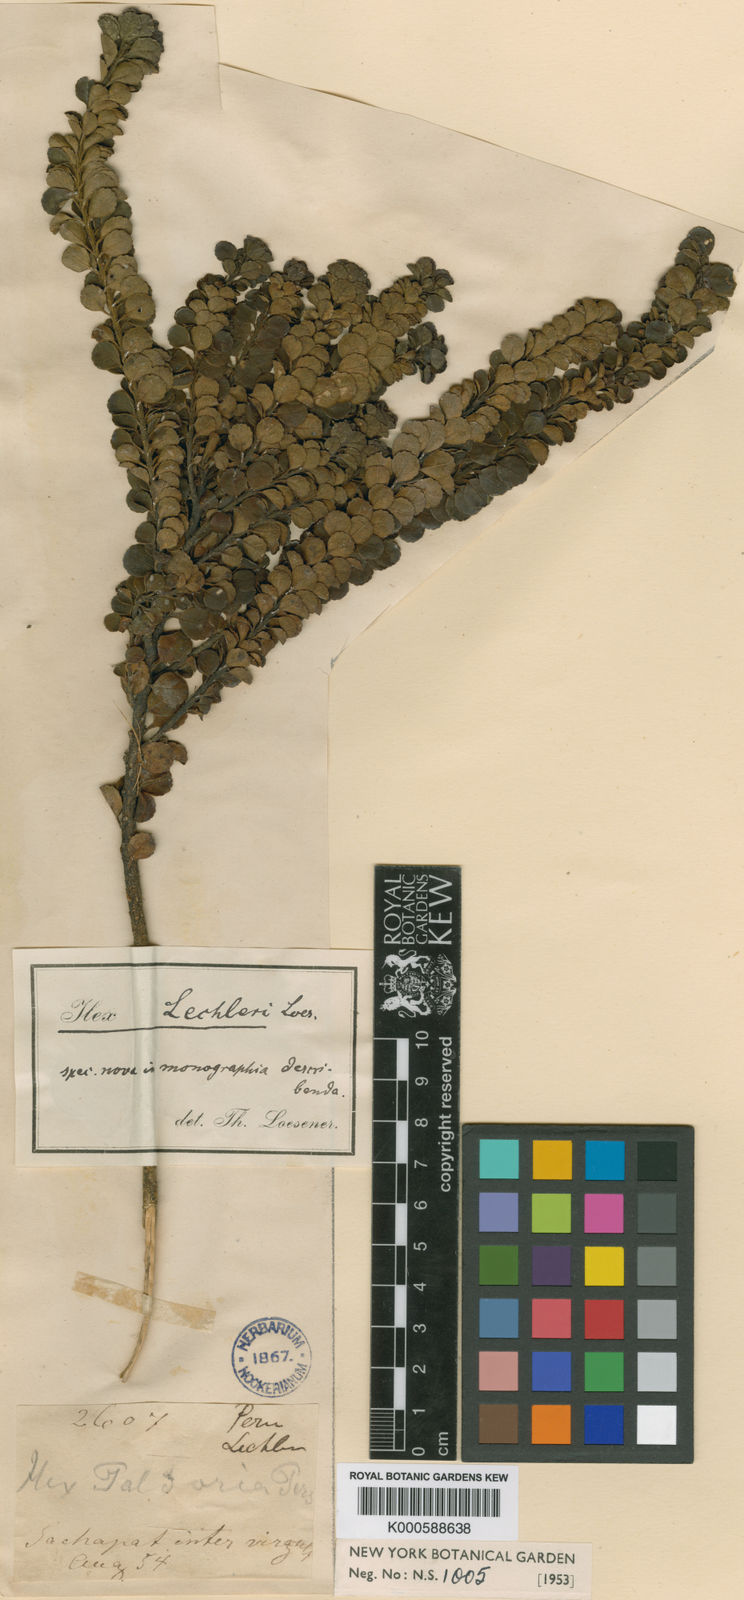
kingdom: Plantae
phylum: Tracheophyta
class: Magnoliopsida
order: Aquifoliales
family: Aquifoliaceae
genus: Ilex
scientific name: Ilex ovalis
